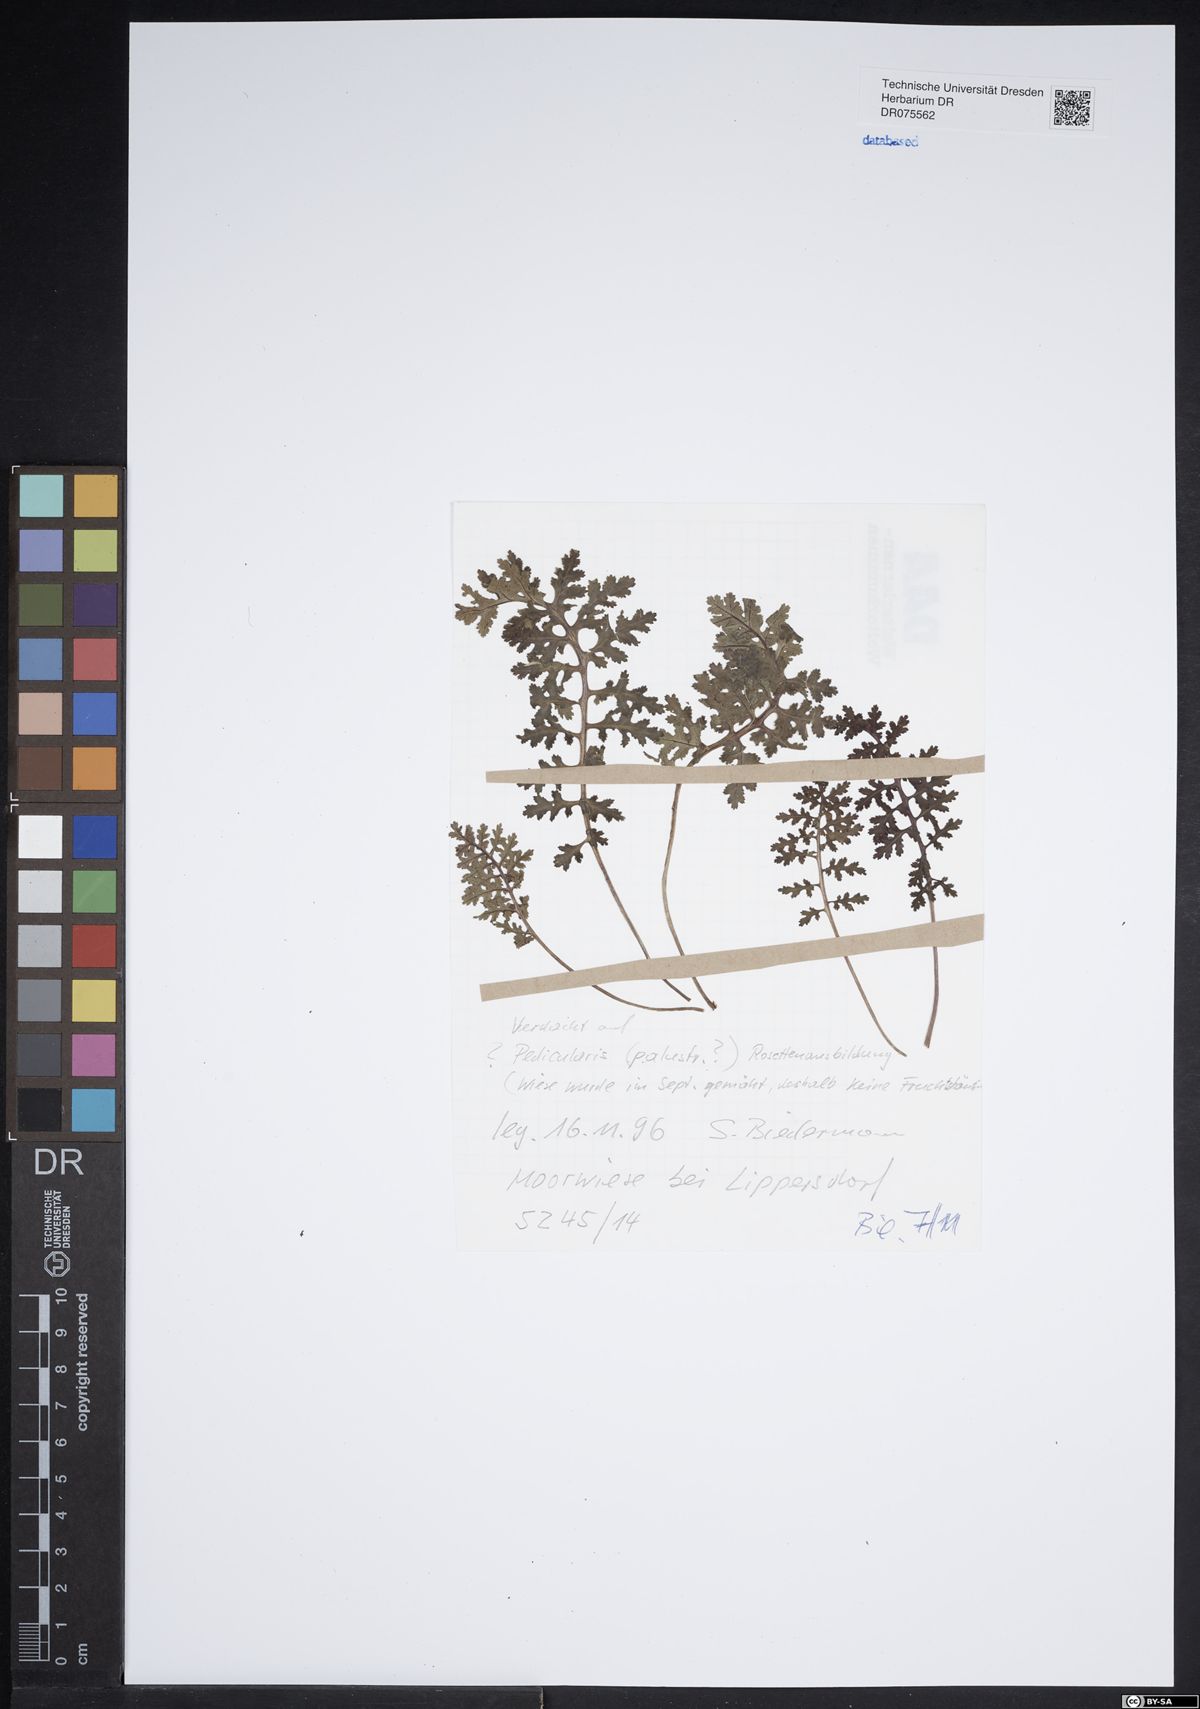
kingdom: Plantae
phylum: Tracheophyta
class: Magnoliopsida
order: Lamiales
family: Orobanchaceae
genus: Pedicularis
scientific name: Pedicularis palustris
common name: Marsh lousewort
